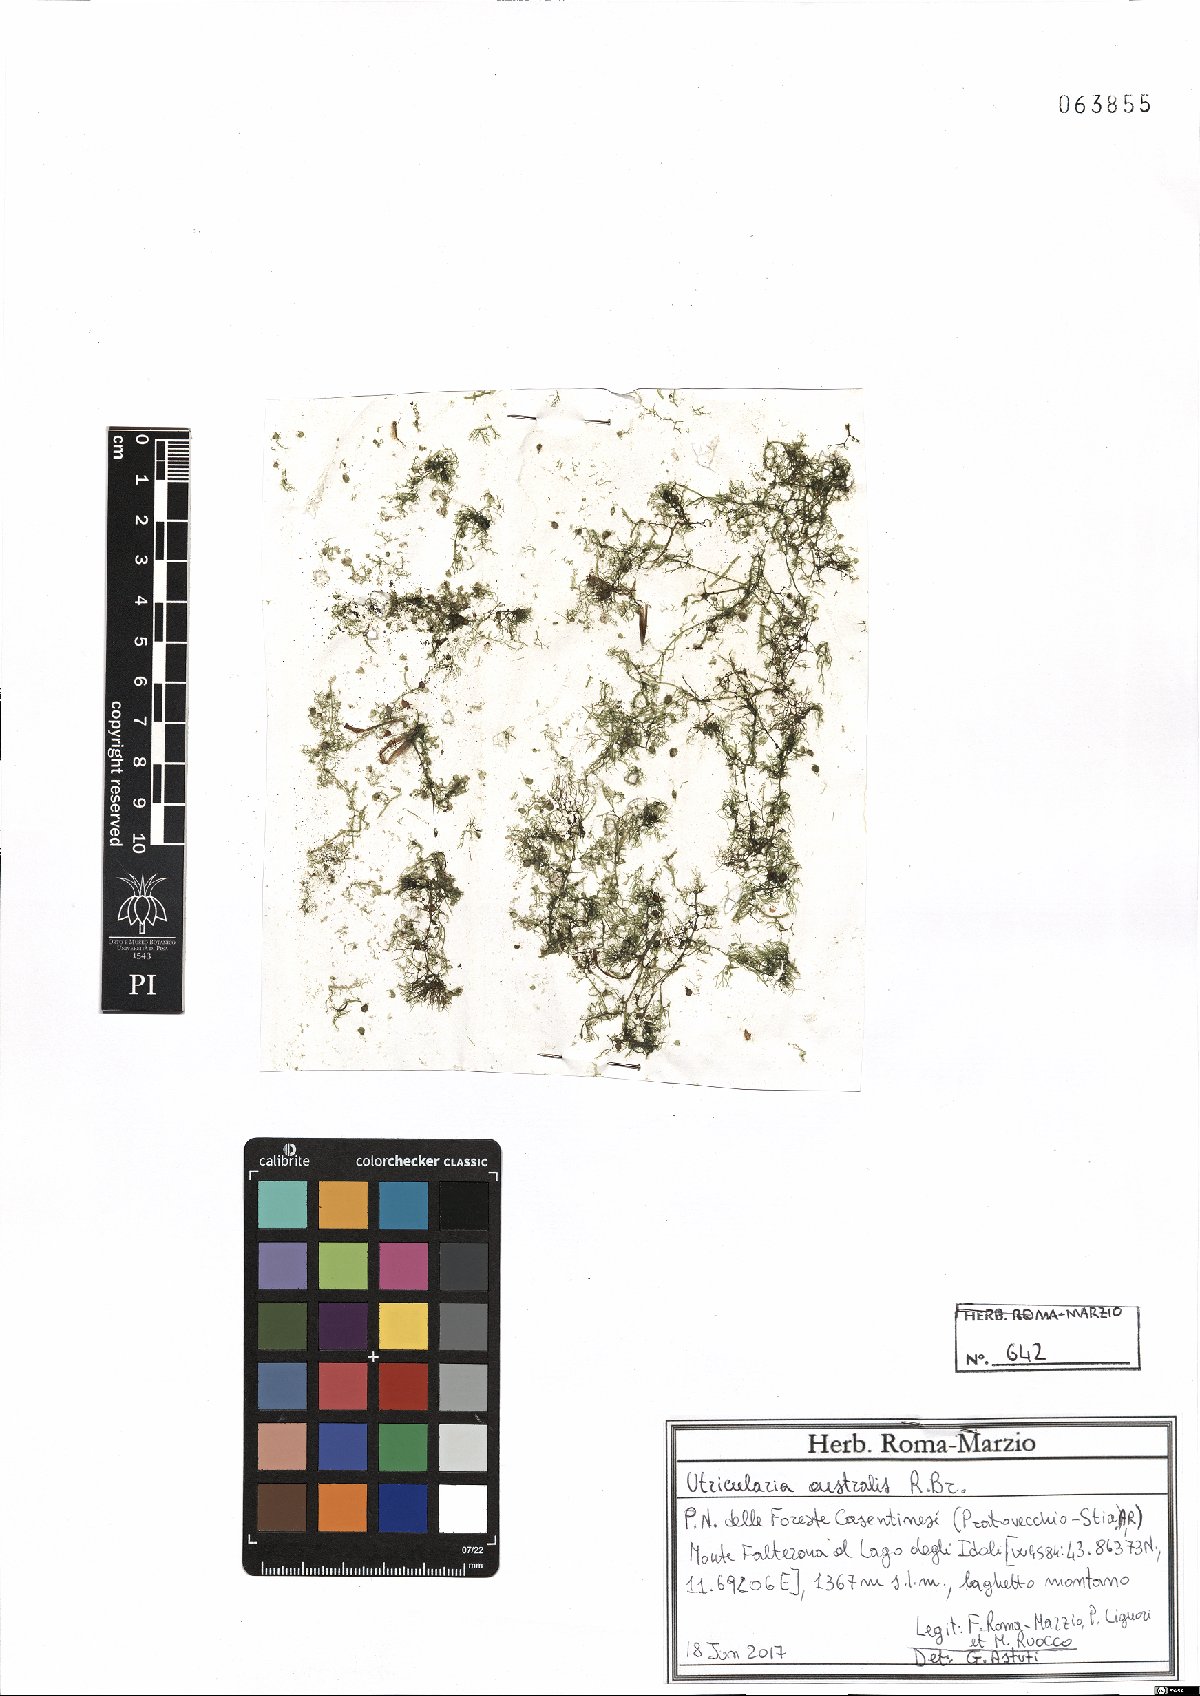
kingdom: Plantae
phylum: Tracheophyta
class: Magnoliopsida
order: Lamiales
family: Lentibulariaceae
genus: Utricularia
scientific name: Utricularia australis
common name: Bladderwort
